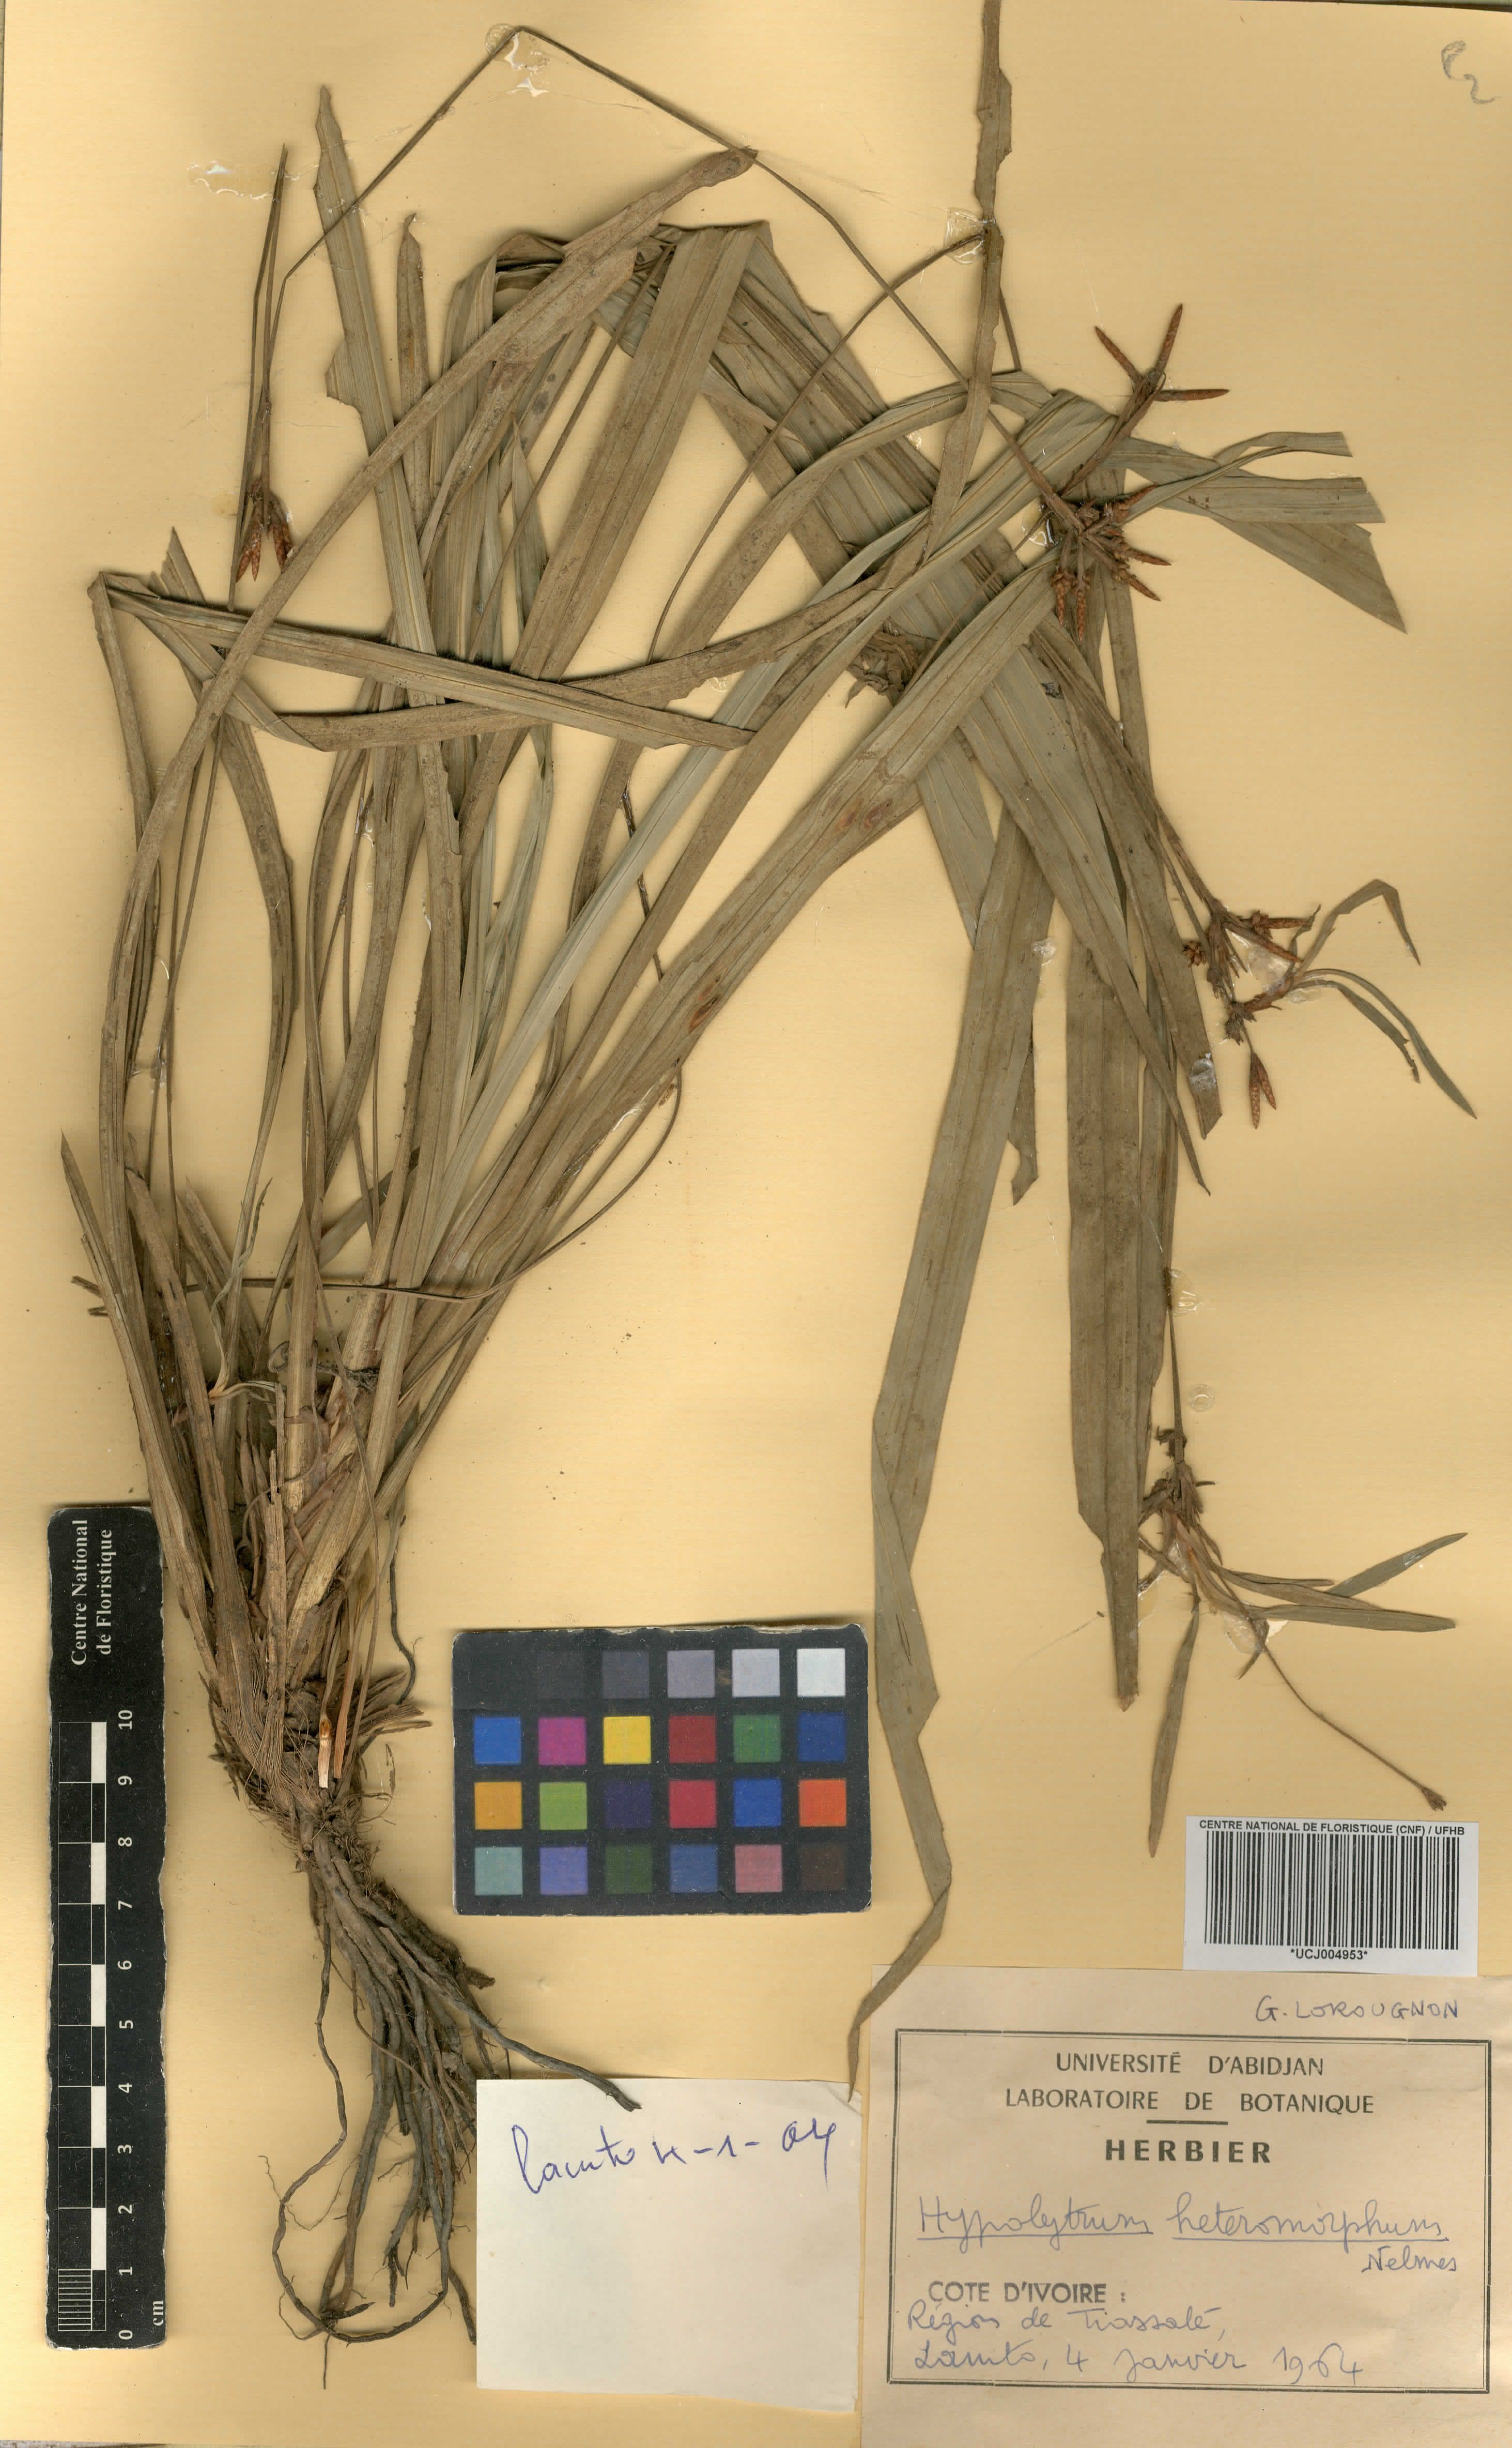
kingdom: Plantae
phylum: Tracheophyta
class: Liliopsida
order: Poales
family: Cyperaceae
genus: Hypolytrum
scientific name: Hypolytrum heteromorphum
